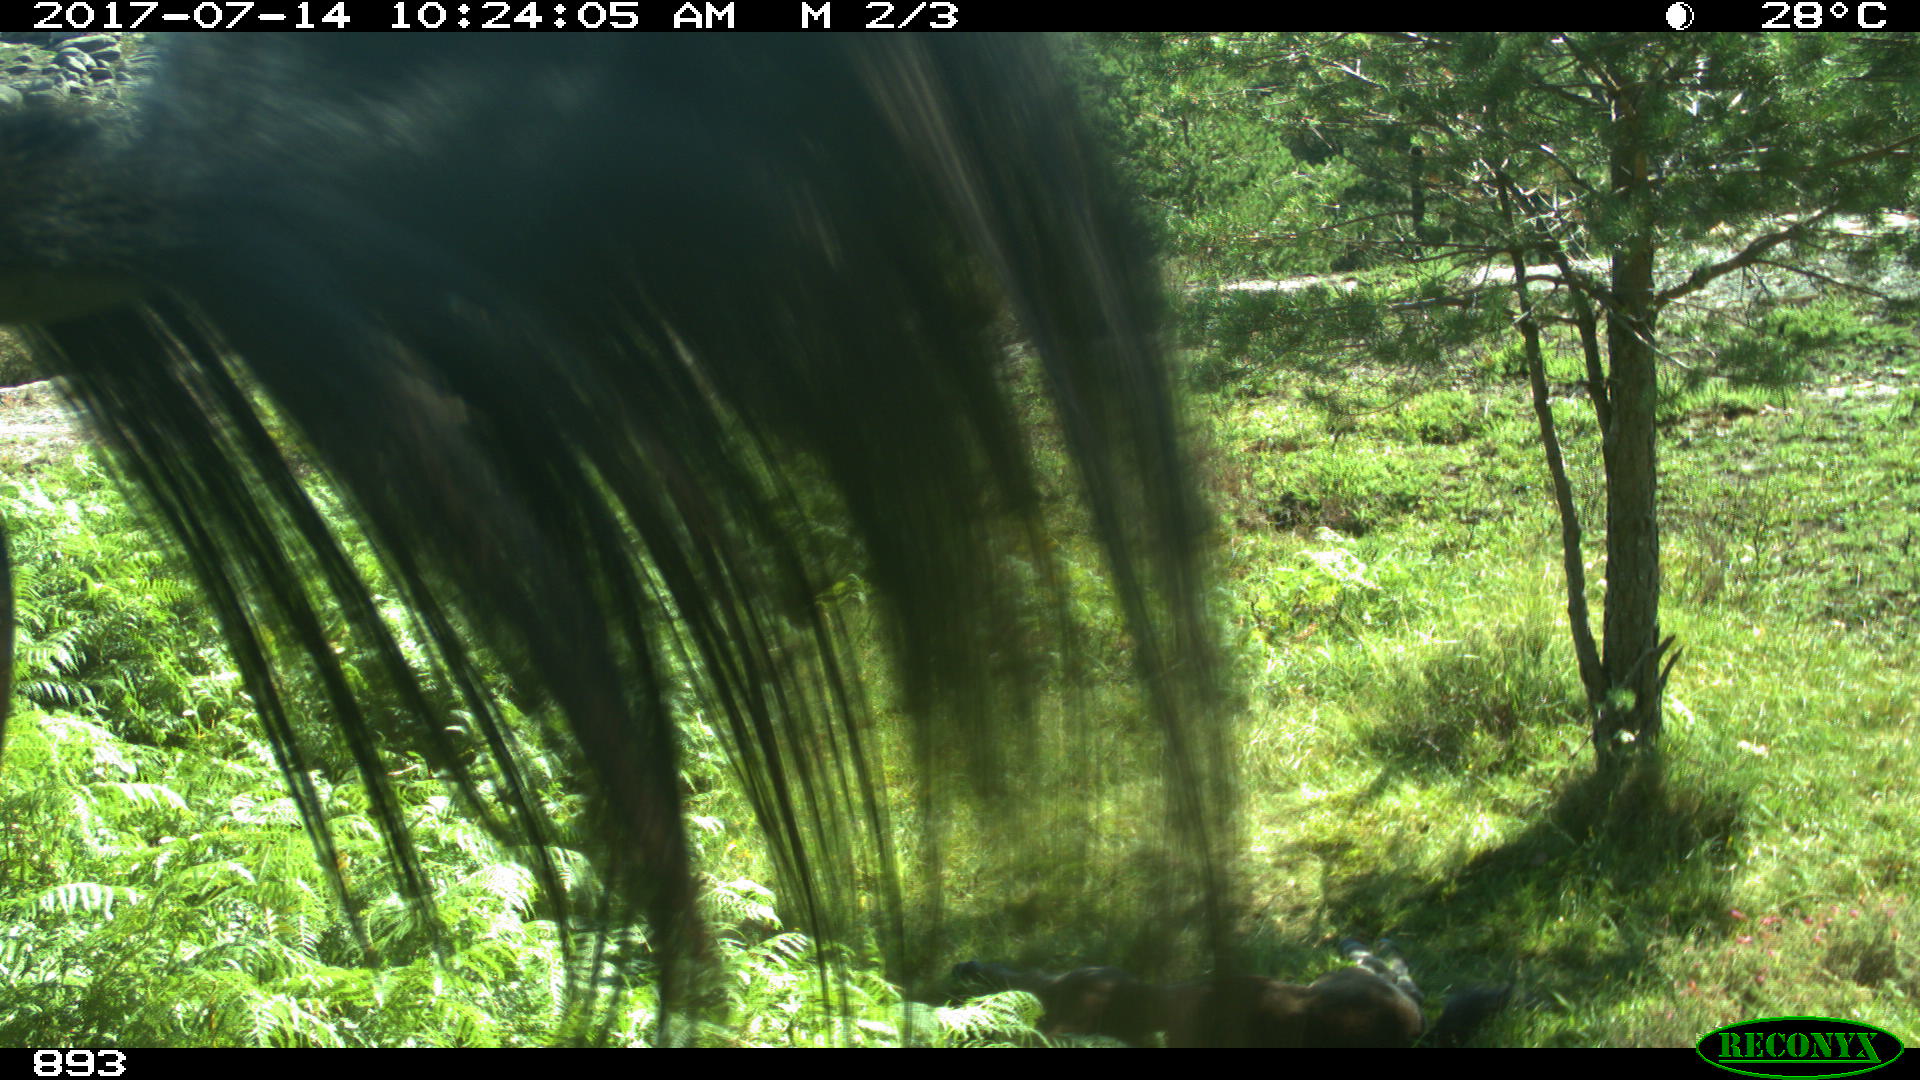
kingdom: Animalia
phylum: Chordata
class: Mammalia
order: Perissodactyla
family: Equidae
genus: Equus
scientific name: Equus caballus
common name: Horse
